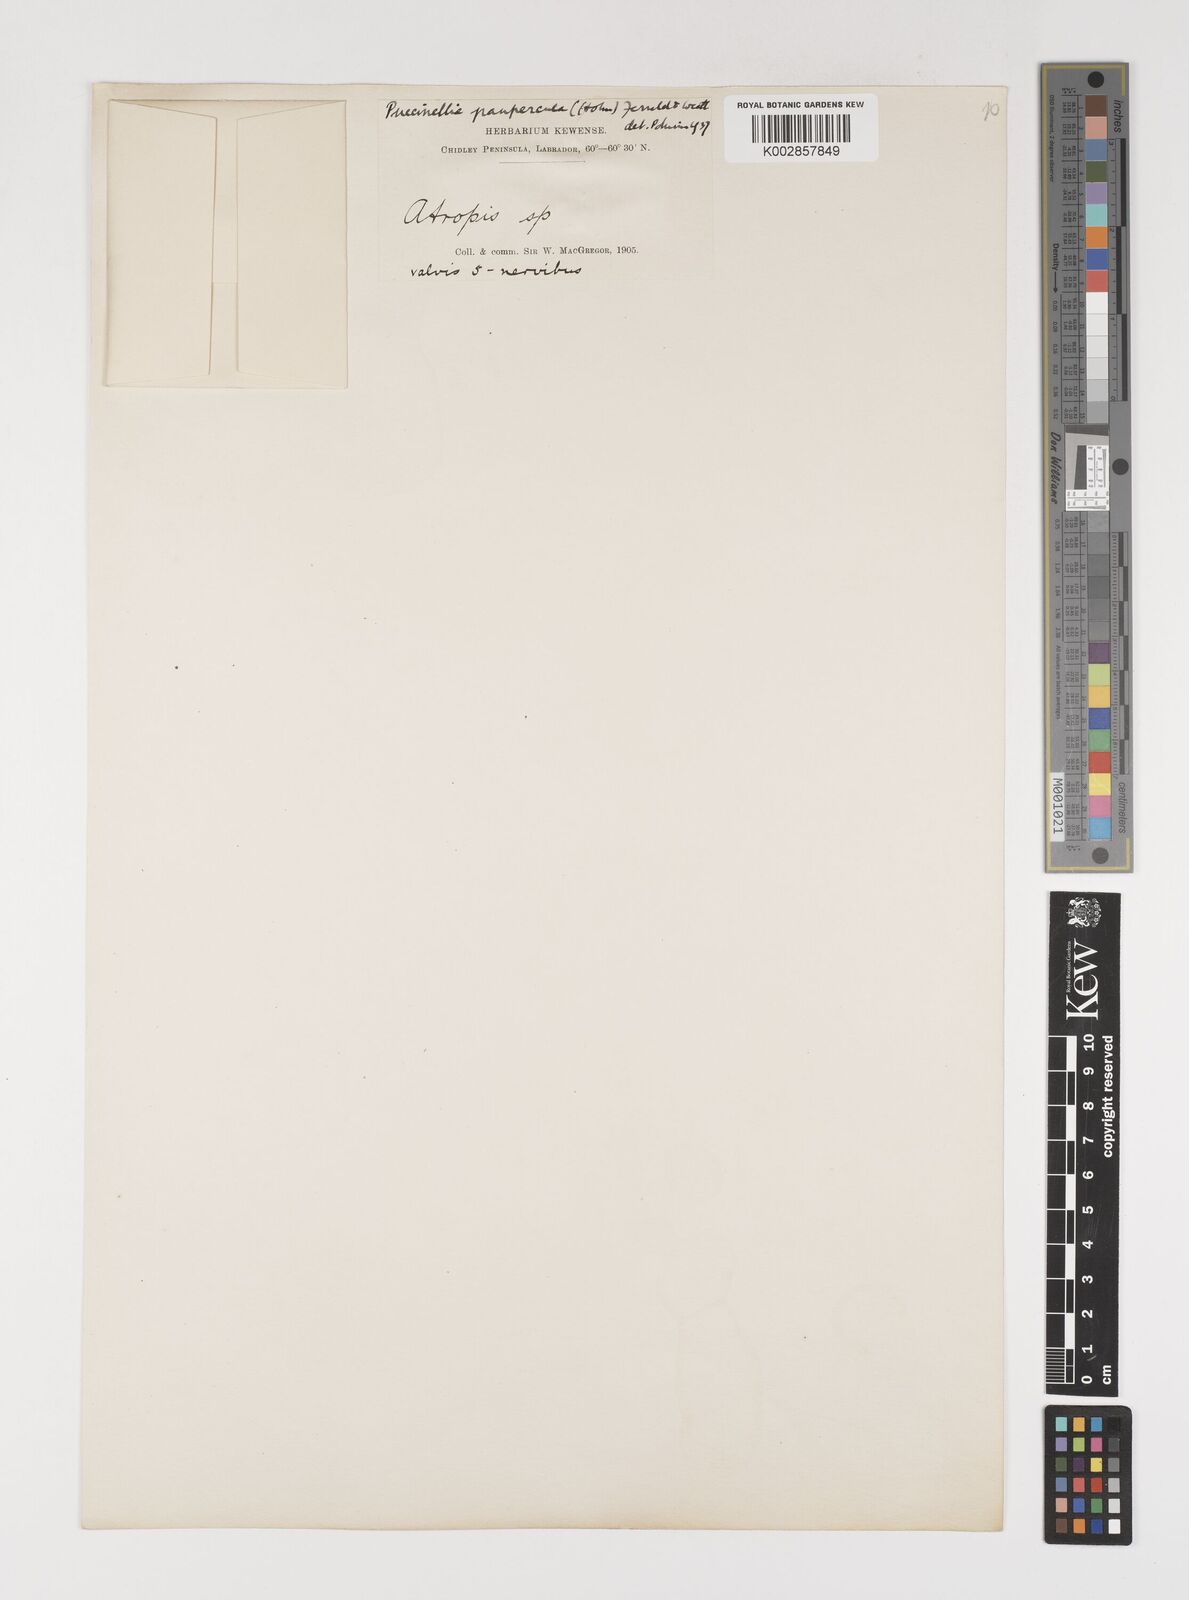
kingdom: Plantae
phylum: Tracheophyta
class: Liliopsida
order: Poales
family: Poaceae
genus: Puccinellia
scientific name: Puccinellia tenella
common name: Tundra alkaligrass
